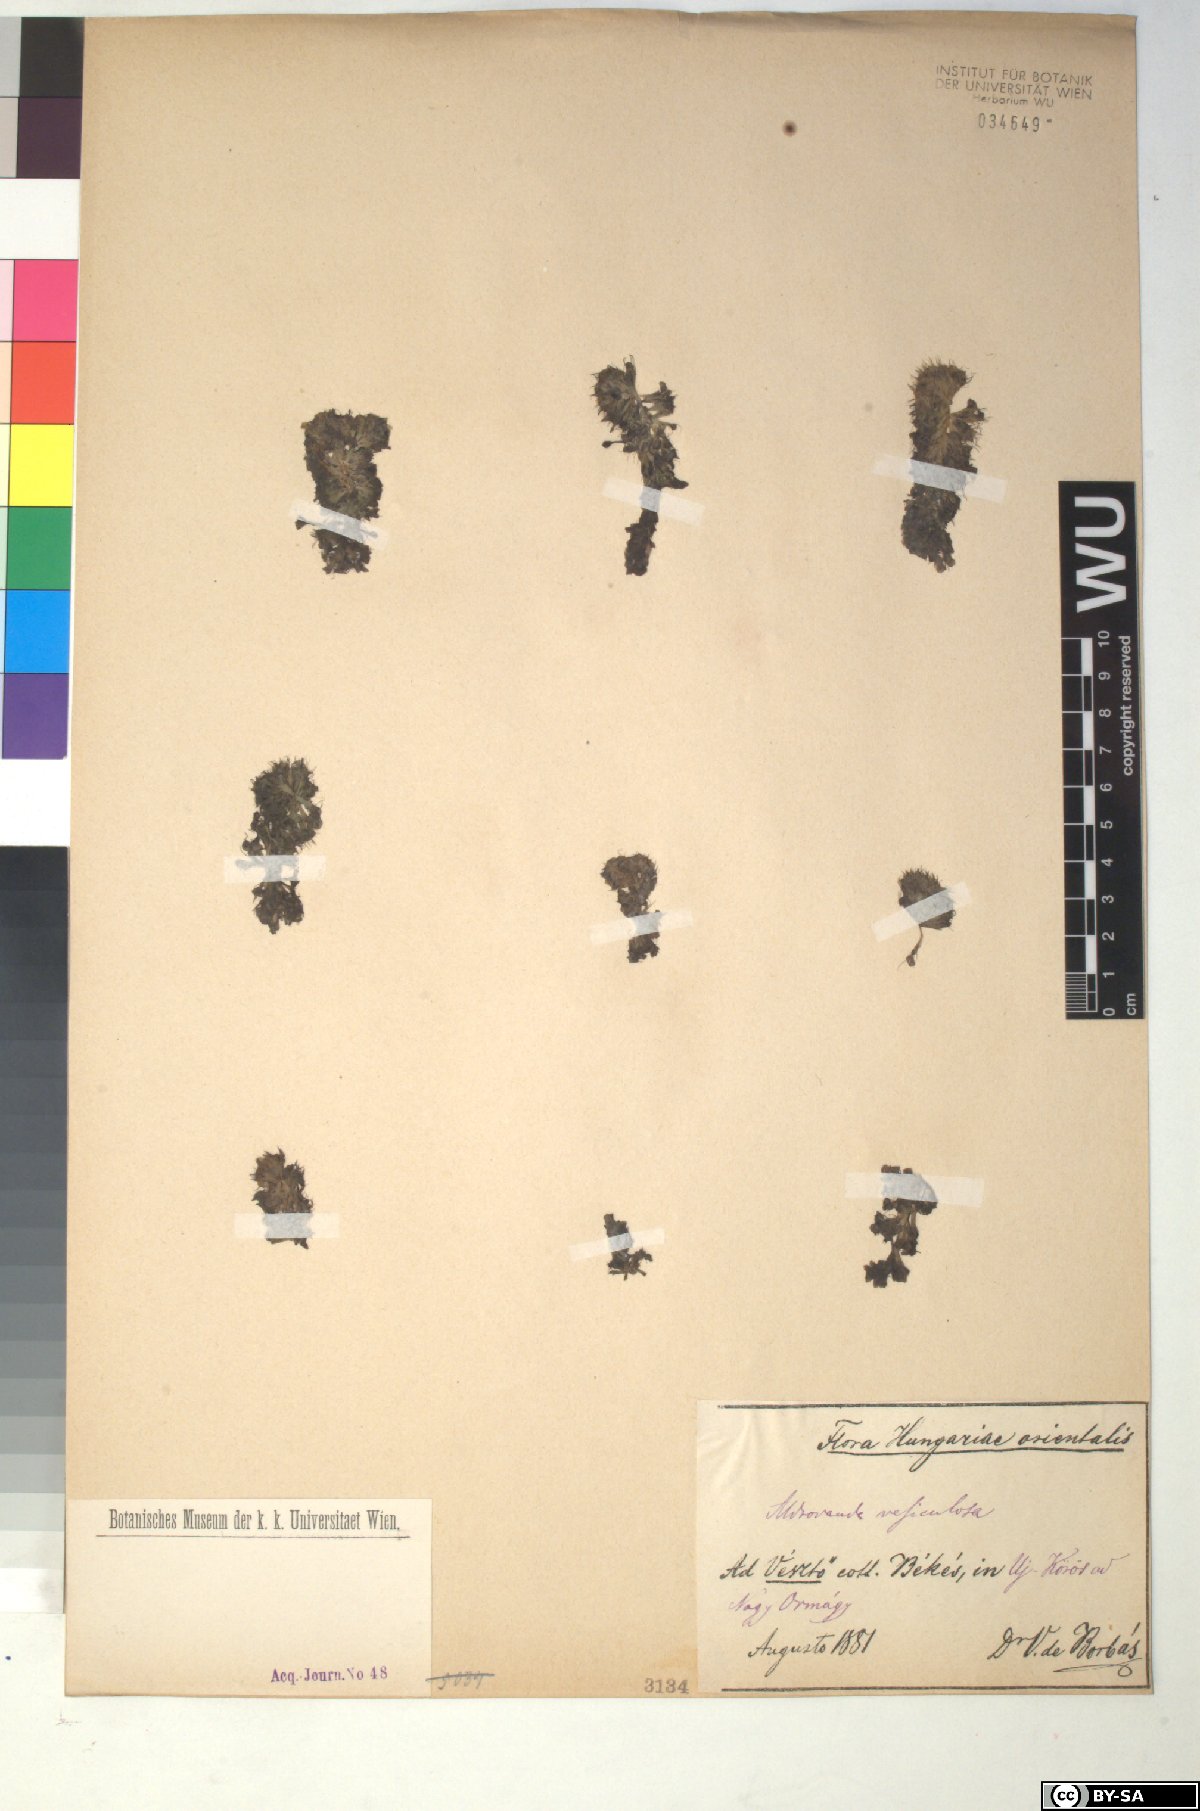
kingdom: Plantae
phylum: Tracheophyta
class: Magnoliopsida
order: Caryophyllales
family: Droseraceae
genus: Aldrovanda
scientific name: Aldrovanda vesiculosa
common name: Waterwheel plant
